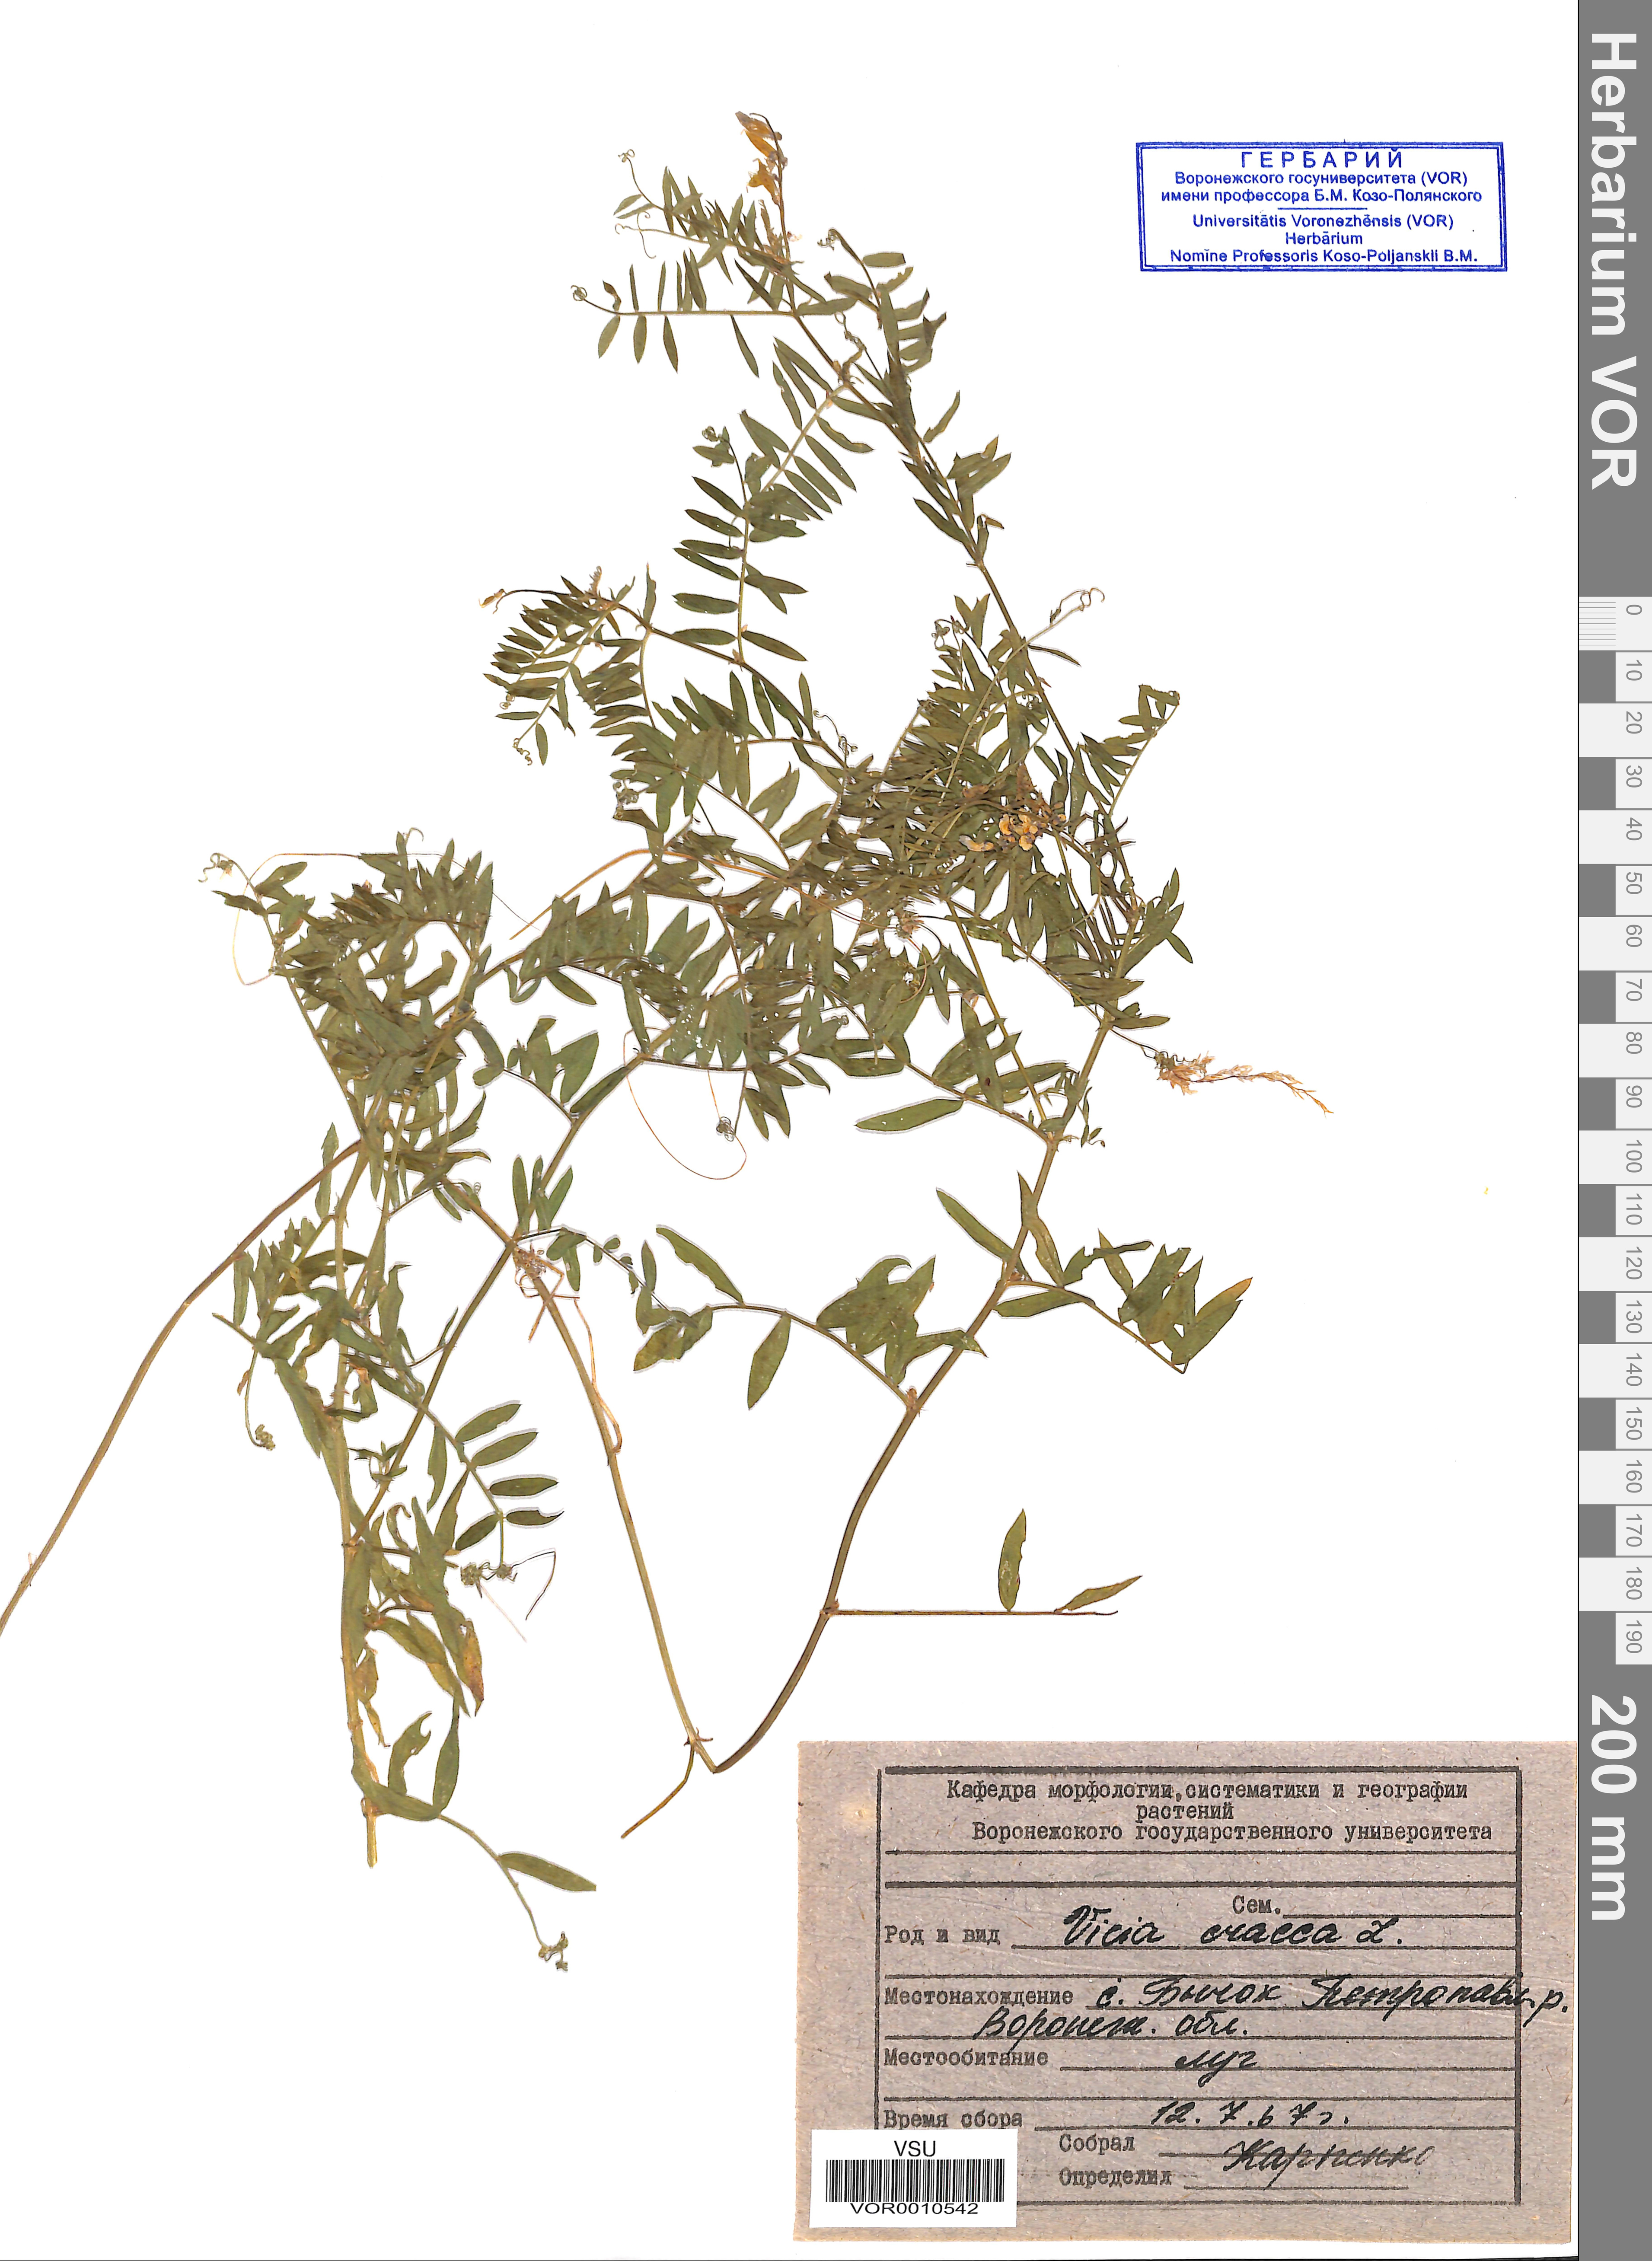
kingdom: Plantae
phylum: Tracheophyta
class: Magnoliopsida
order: Fabales
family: Fabaceae
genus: Vicia
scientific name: Vicia cracca
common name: Bird vetch
